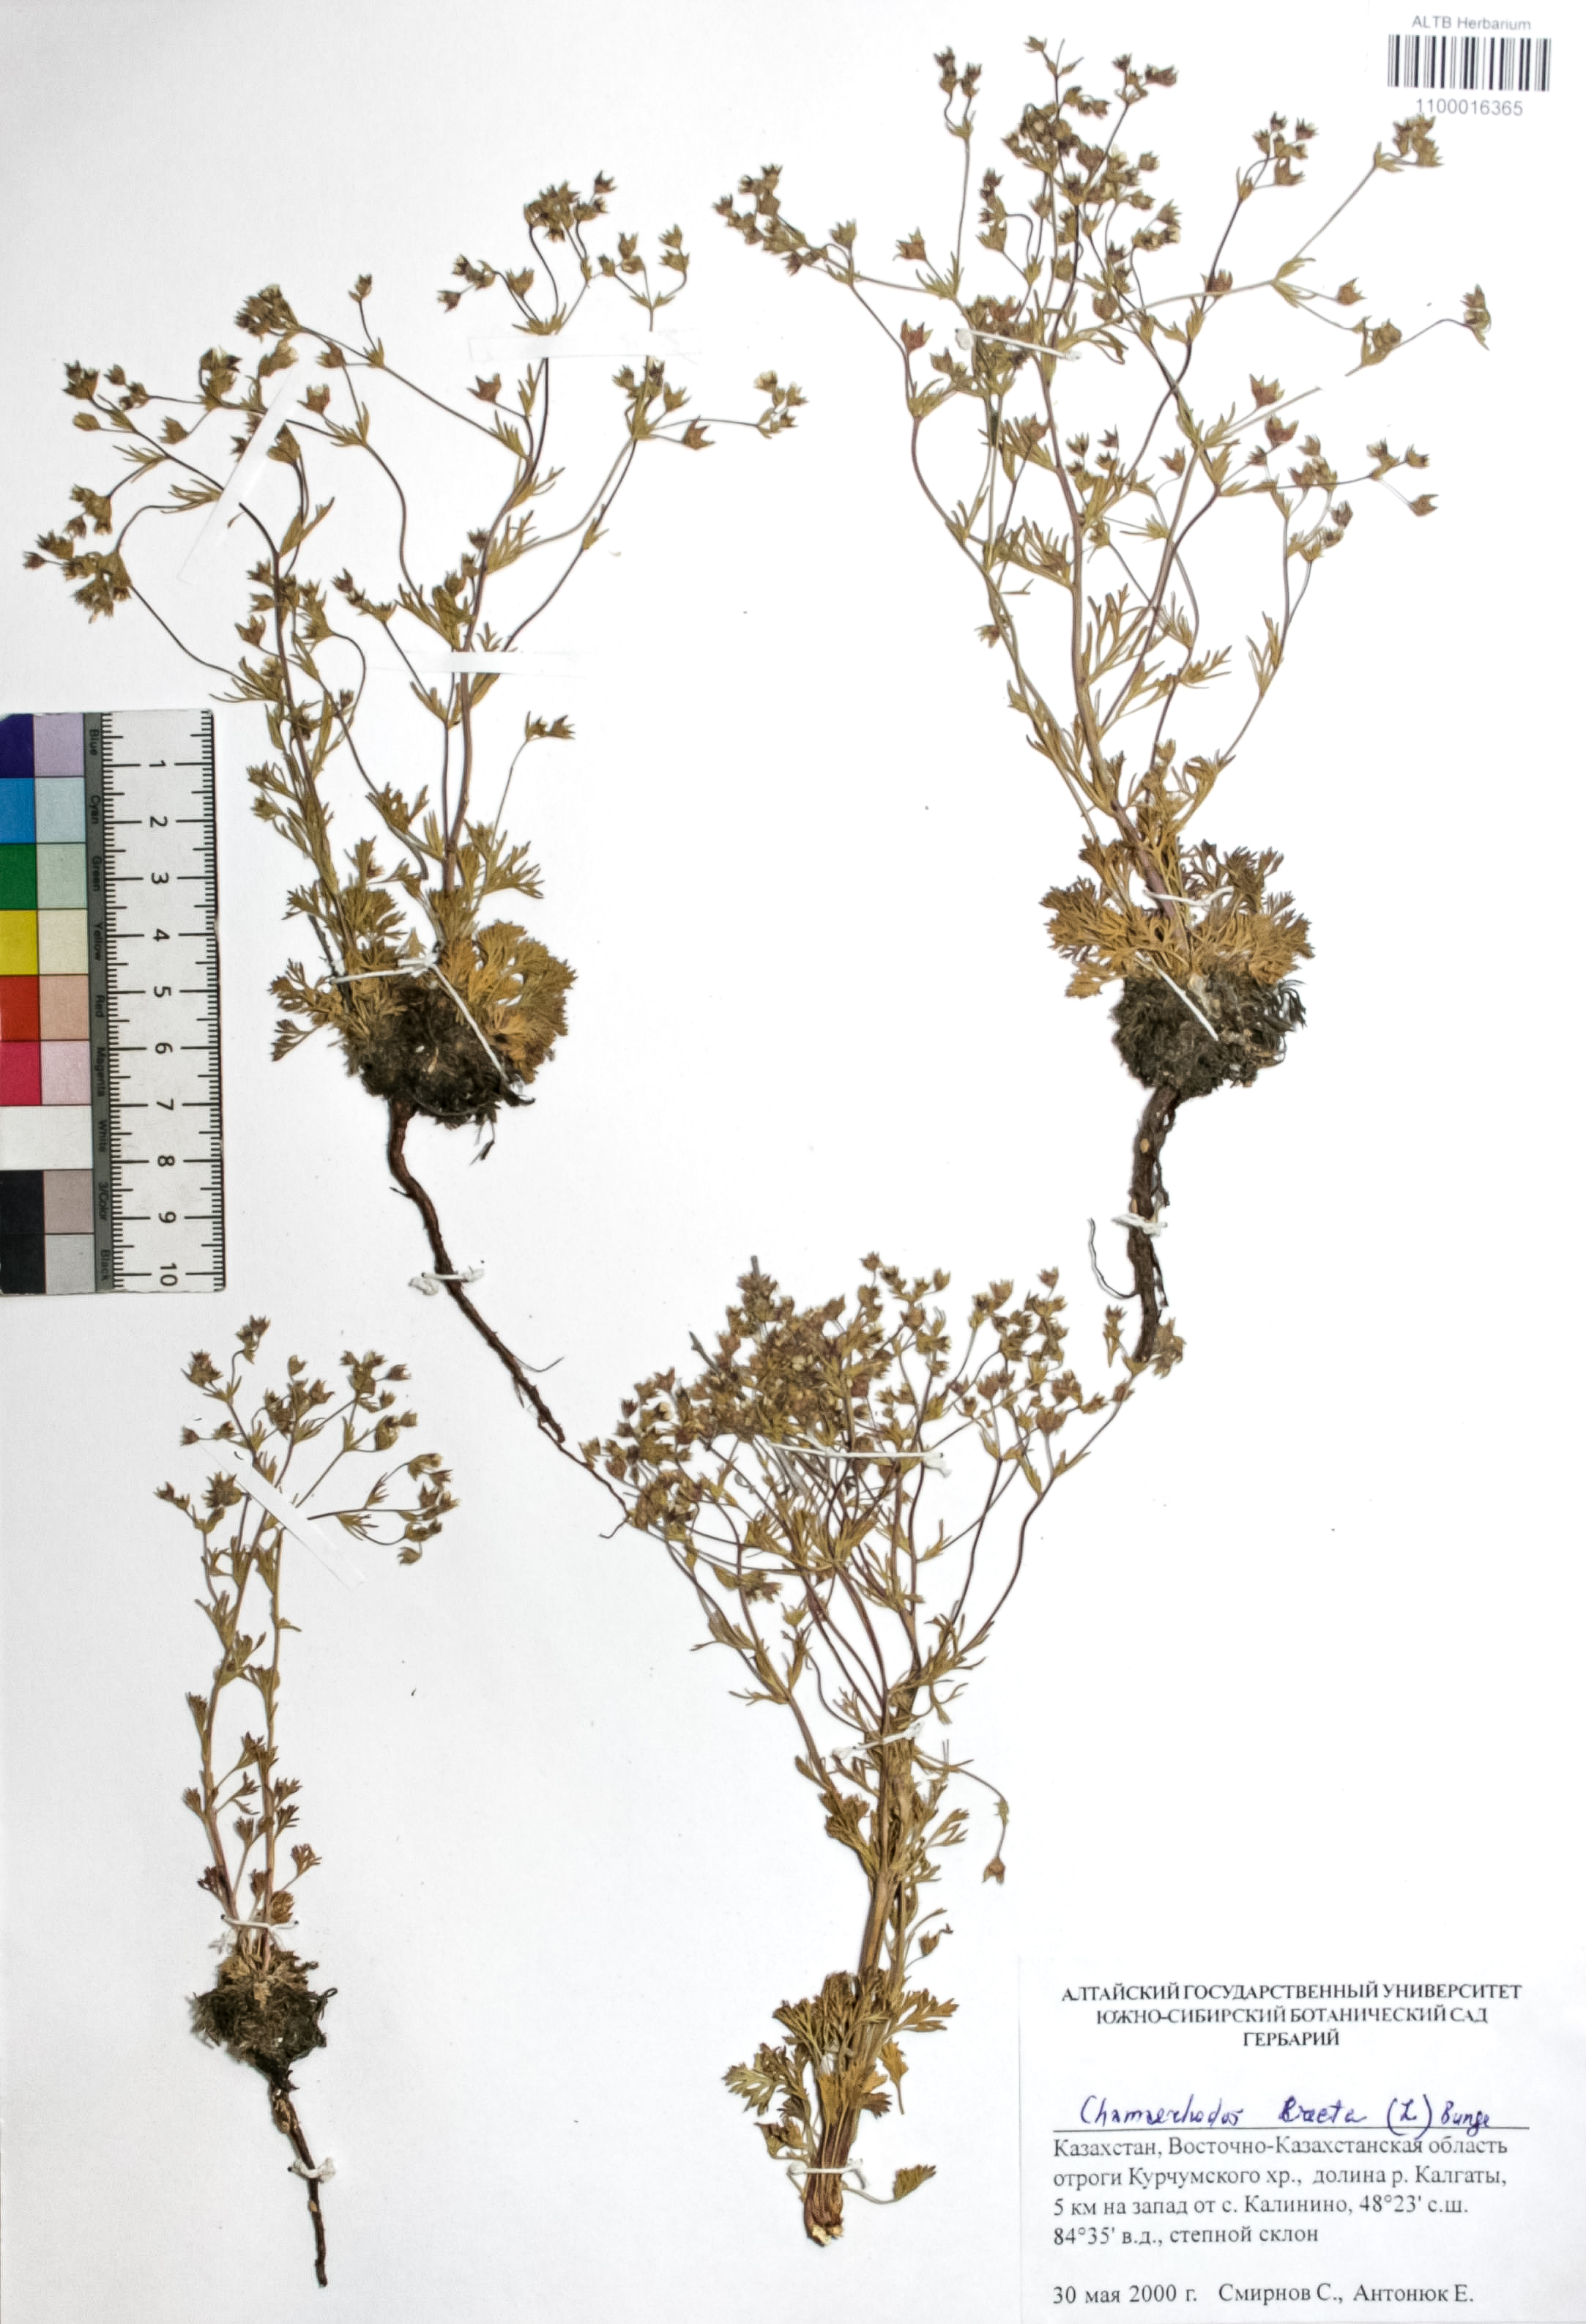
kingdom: Plantae
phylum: Tracheophyta
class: Magnoliopsida
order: Rosales
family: Rosaceae
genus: Chamaerhodos
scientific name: Chamaerhodos erecta
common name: American chamaerhodos
